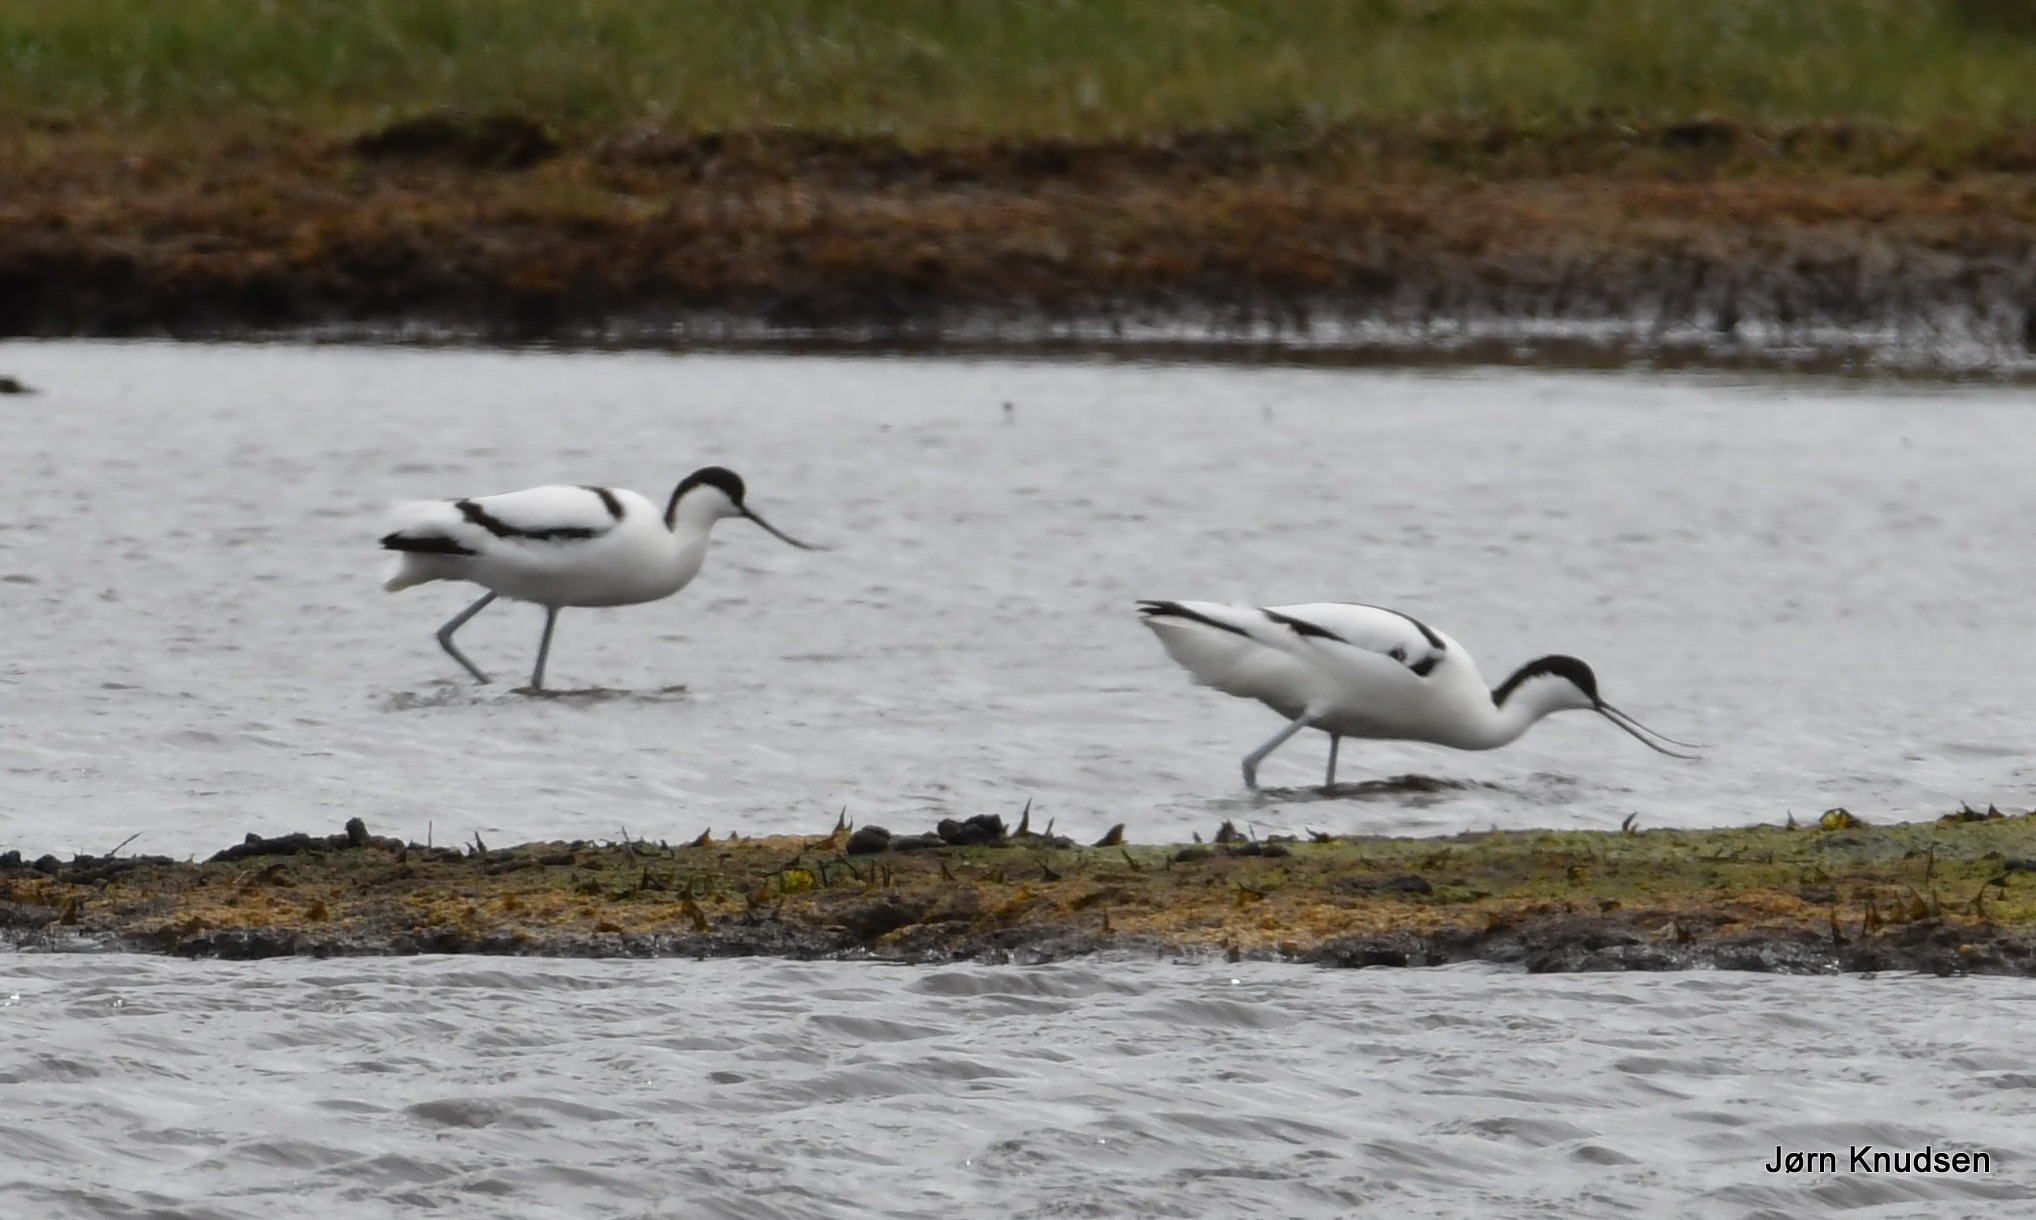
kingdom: Animalia
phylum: Chordata
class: Aves
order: Charadriiformes
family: Recurvirostridae
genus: Recurvirostra
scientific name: Recurvirostra avosetta
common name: Klyde
